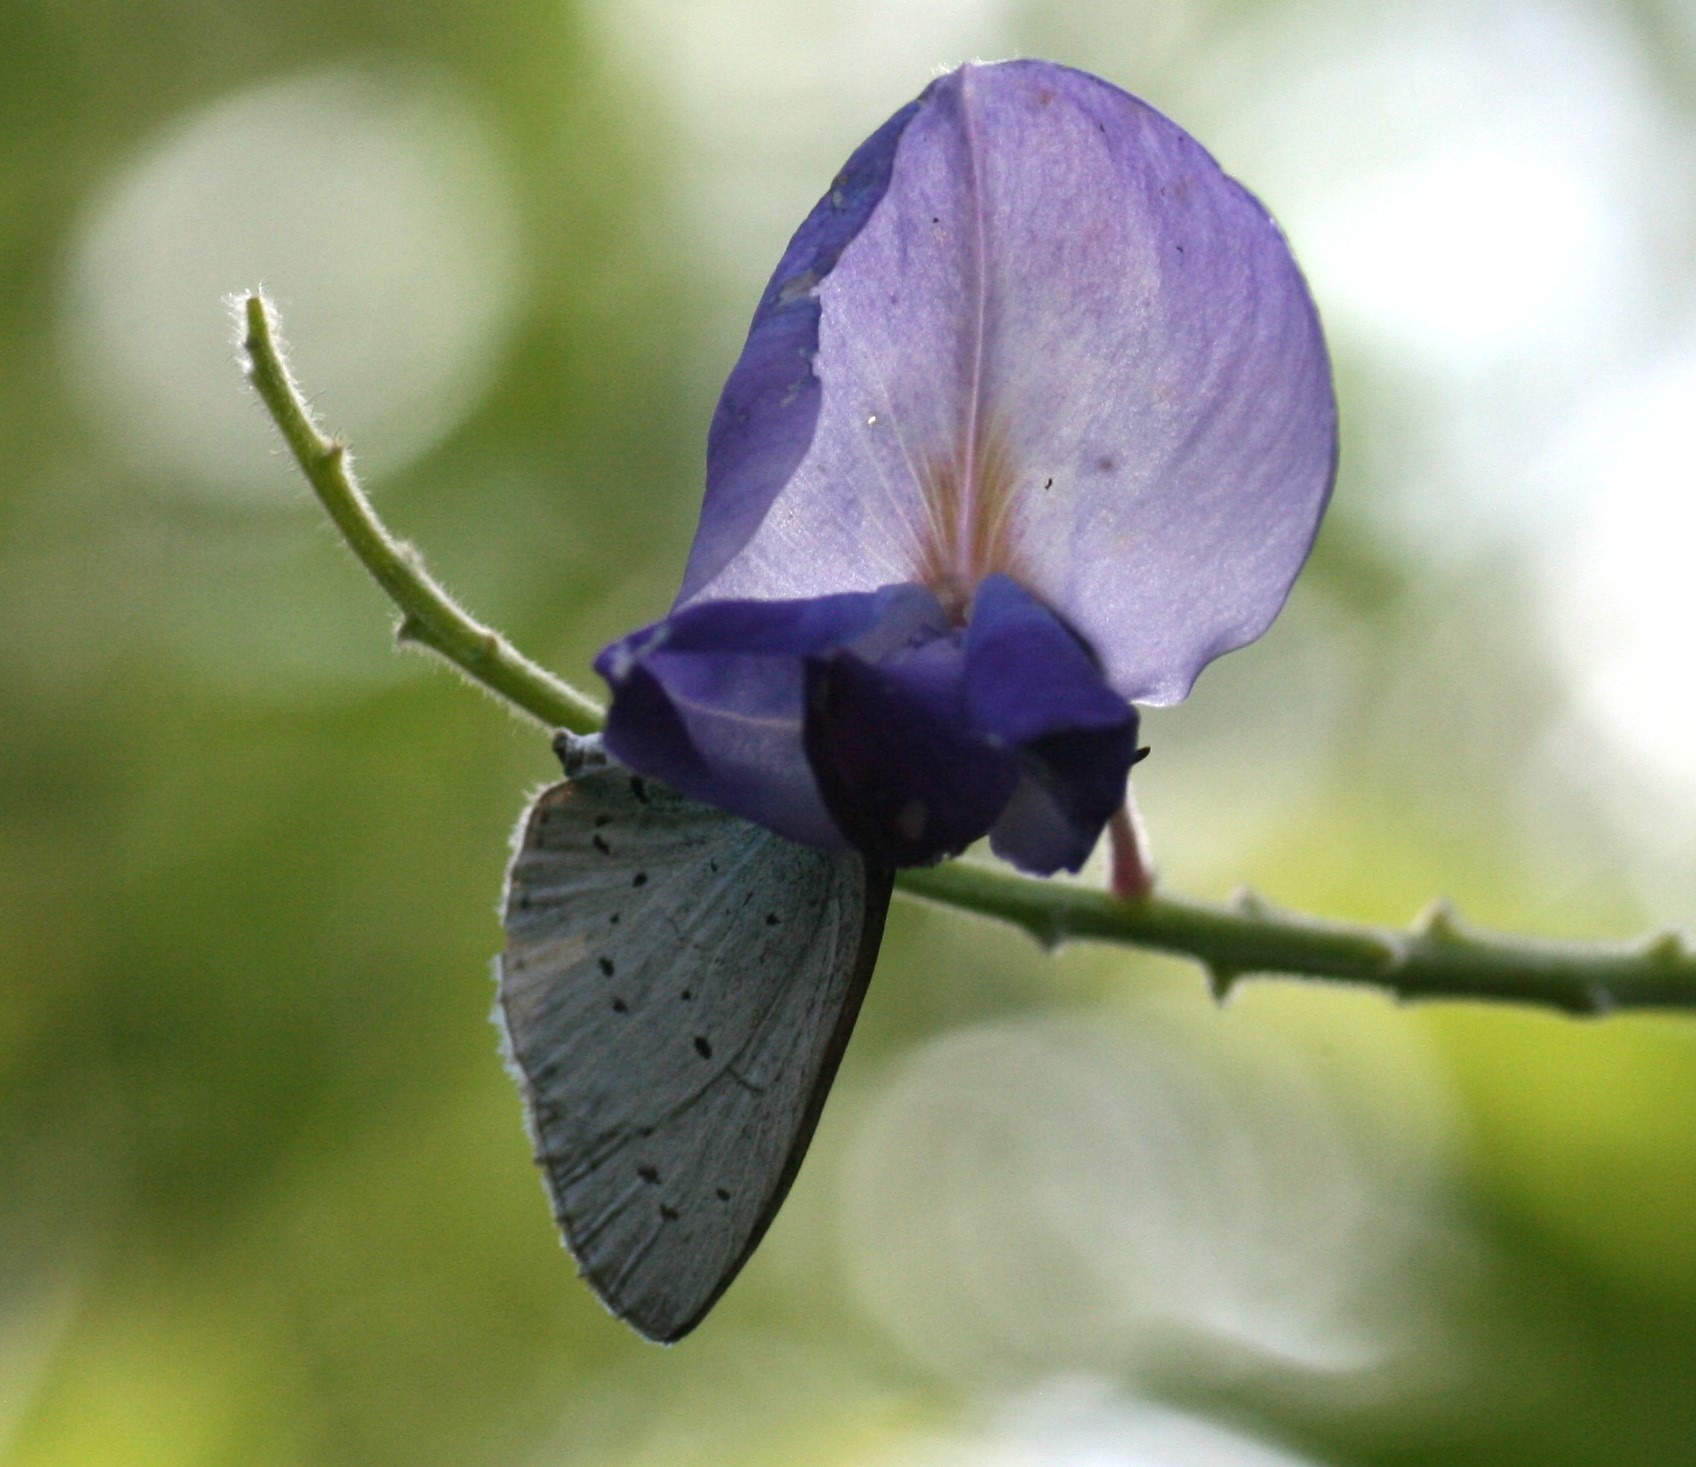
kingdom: Animalia
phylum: Arthropoda
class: Insecta
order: Lepidoptera
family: Lycaenidae
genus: Celastrina
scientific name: Celastrina argiolus
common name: Skovblåfugl
